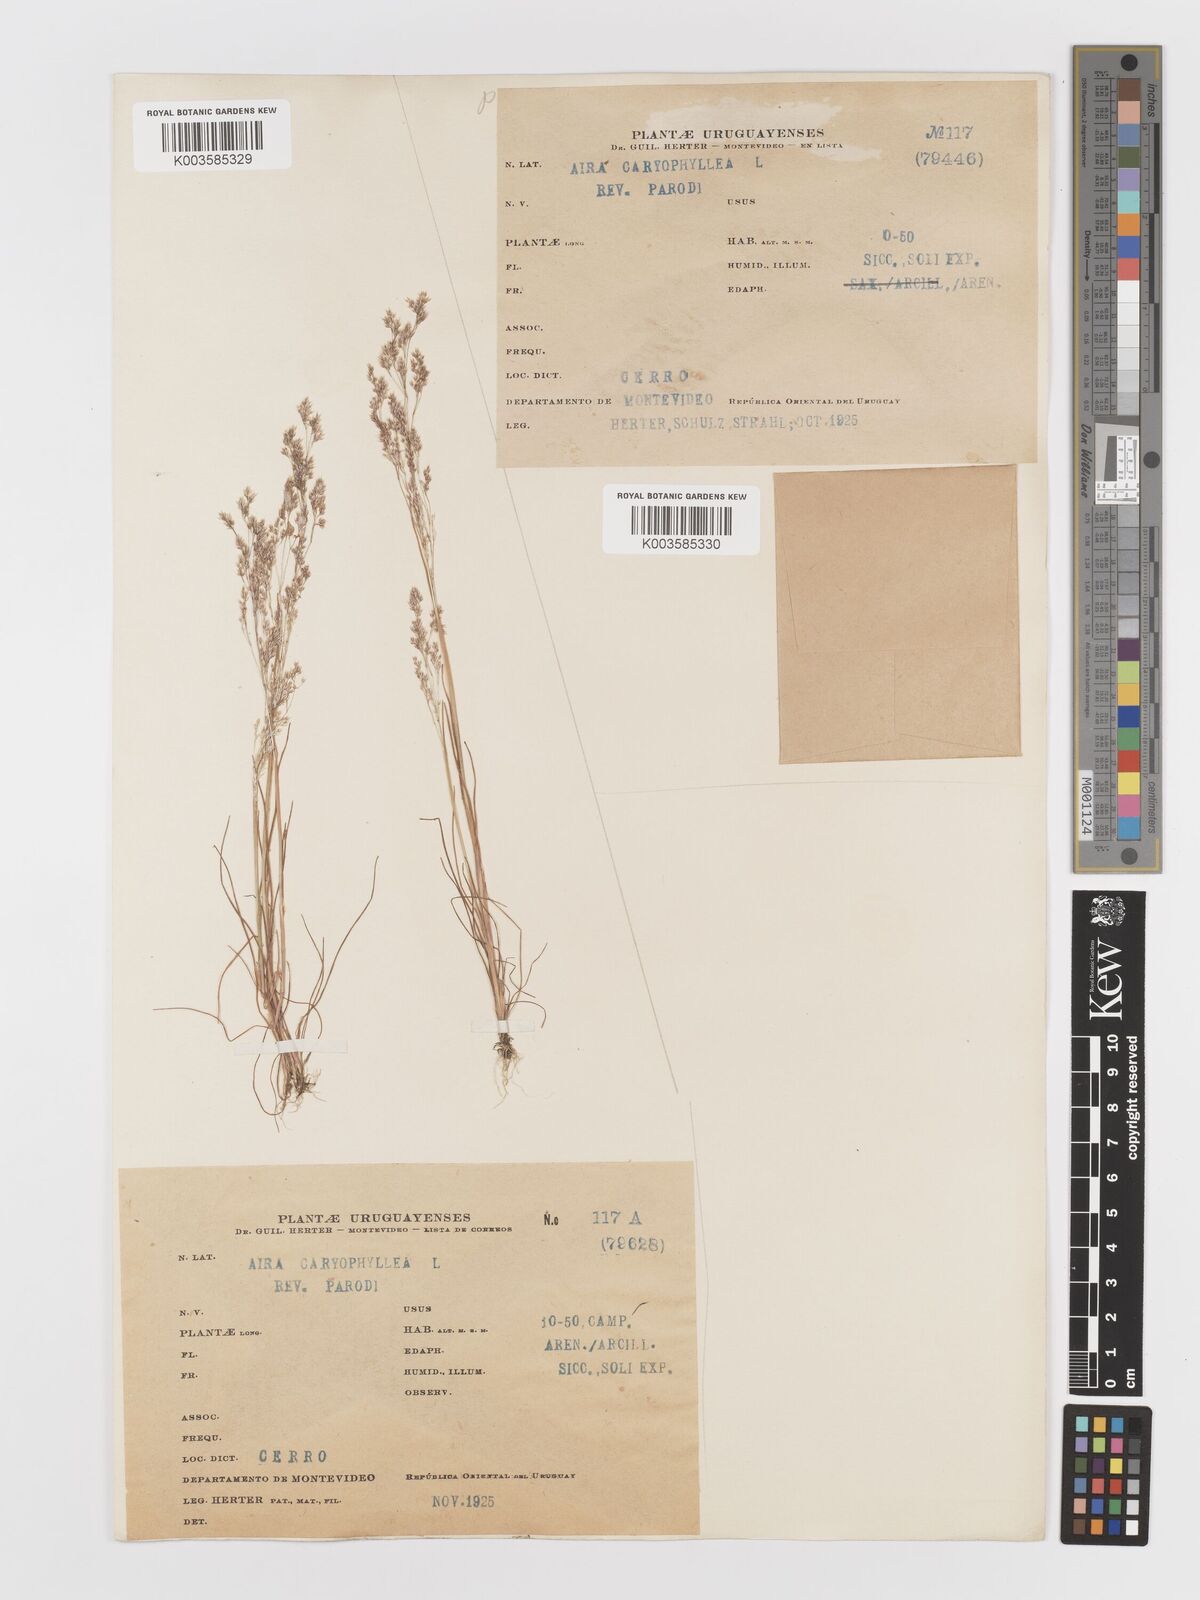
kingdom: Plantae
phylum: Tracheophyta
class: Liliopsida
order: Poales
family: Poaceae
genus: Aira
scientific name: Aira cupaniana
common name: Silver hairgrass
